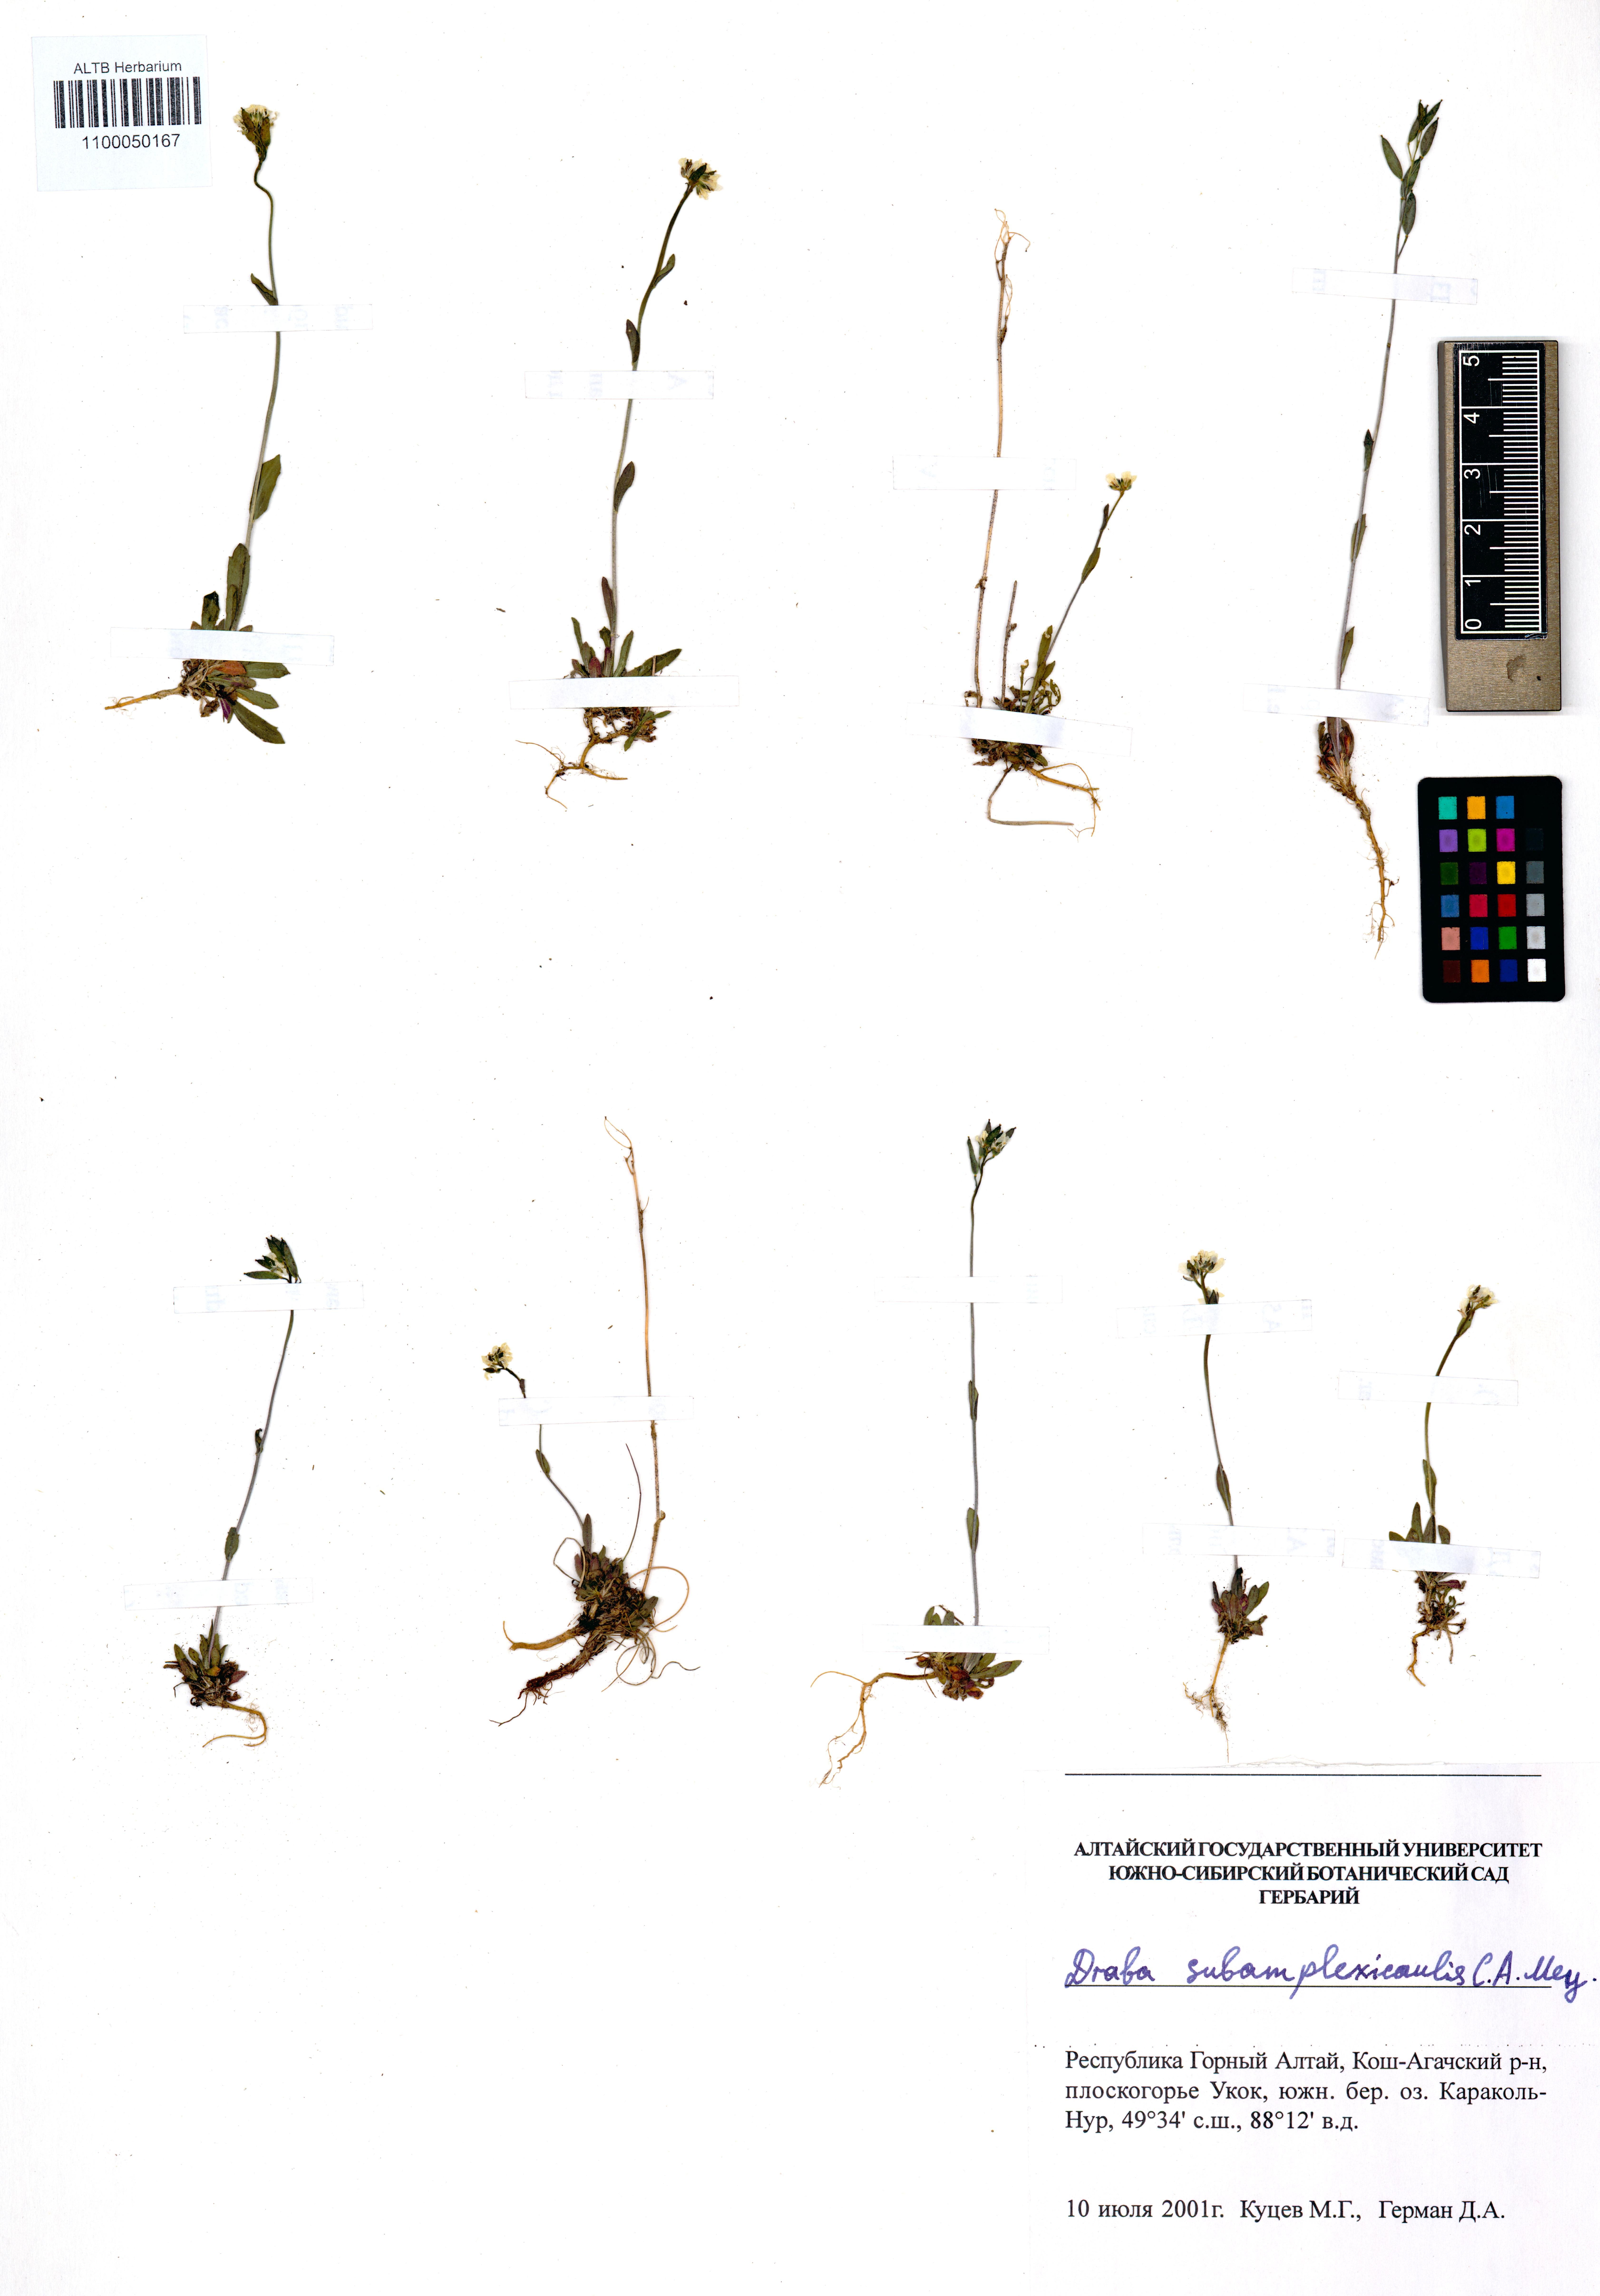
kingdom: Plantae
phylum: Tracheophyta
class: Magnoliopsida
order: Brassicales
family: Brassicaceae
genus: Draba
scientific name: Draba subamplexicaulis
